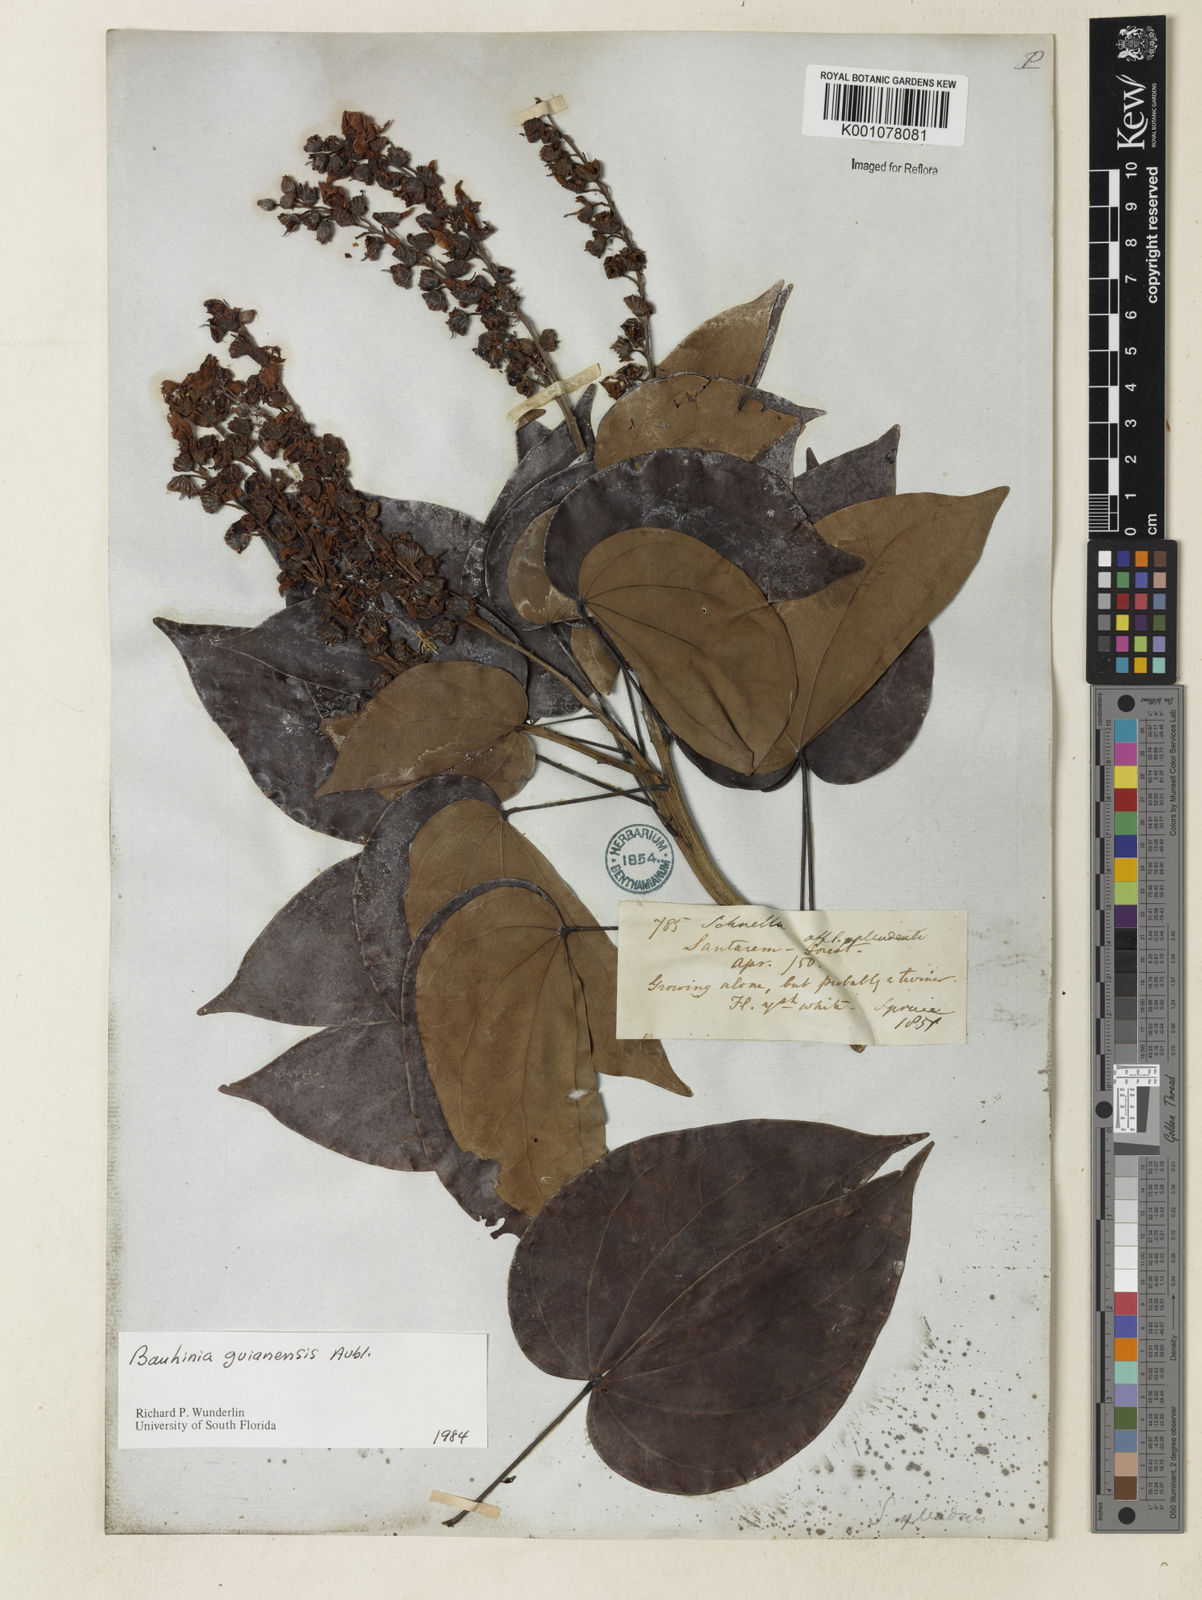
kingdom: Plantae
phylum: Tracheophyta
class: Magnoliopsida
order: Fabales
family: Fabaceae
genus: Schnella
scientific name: Schnella guianensis
